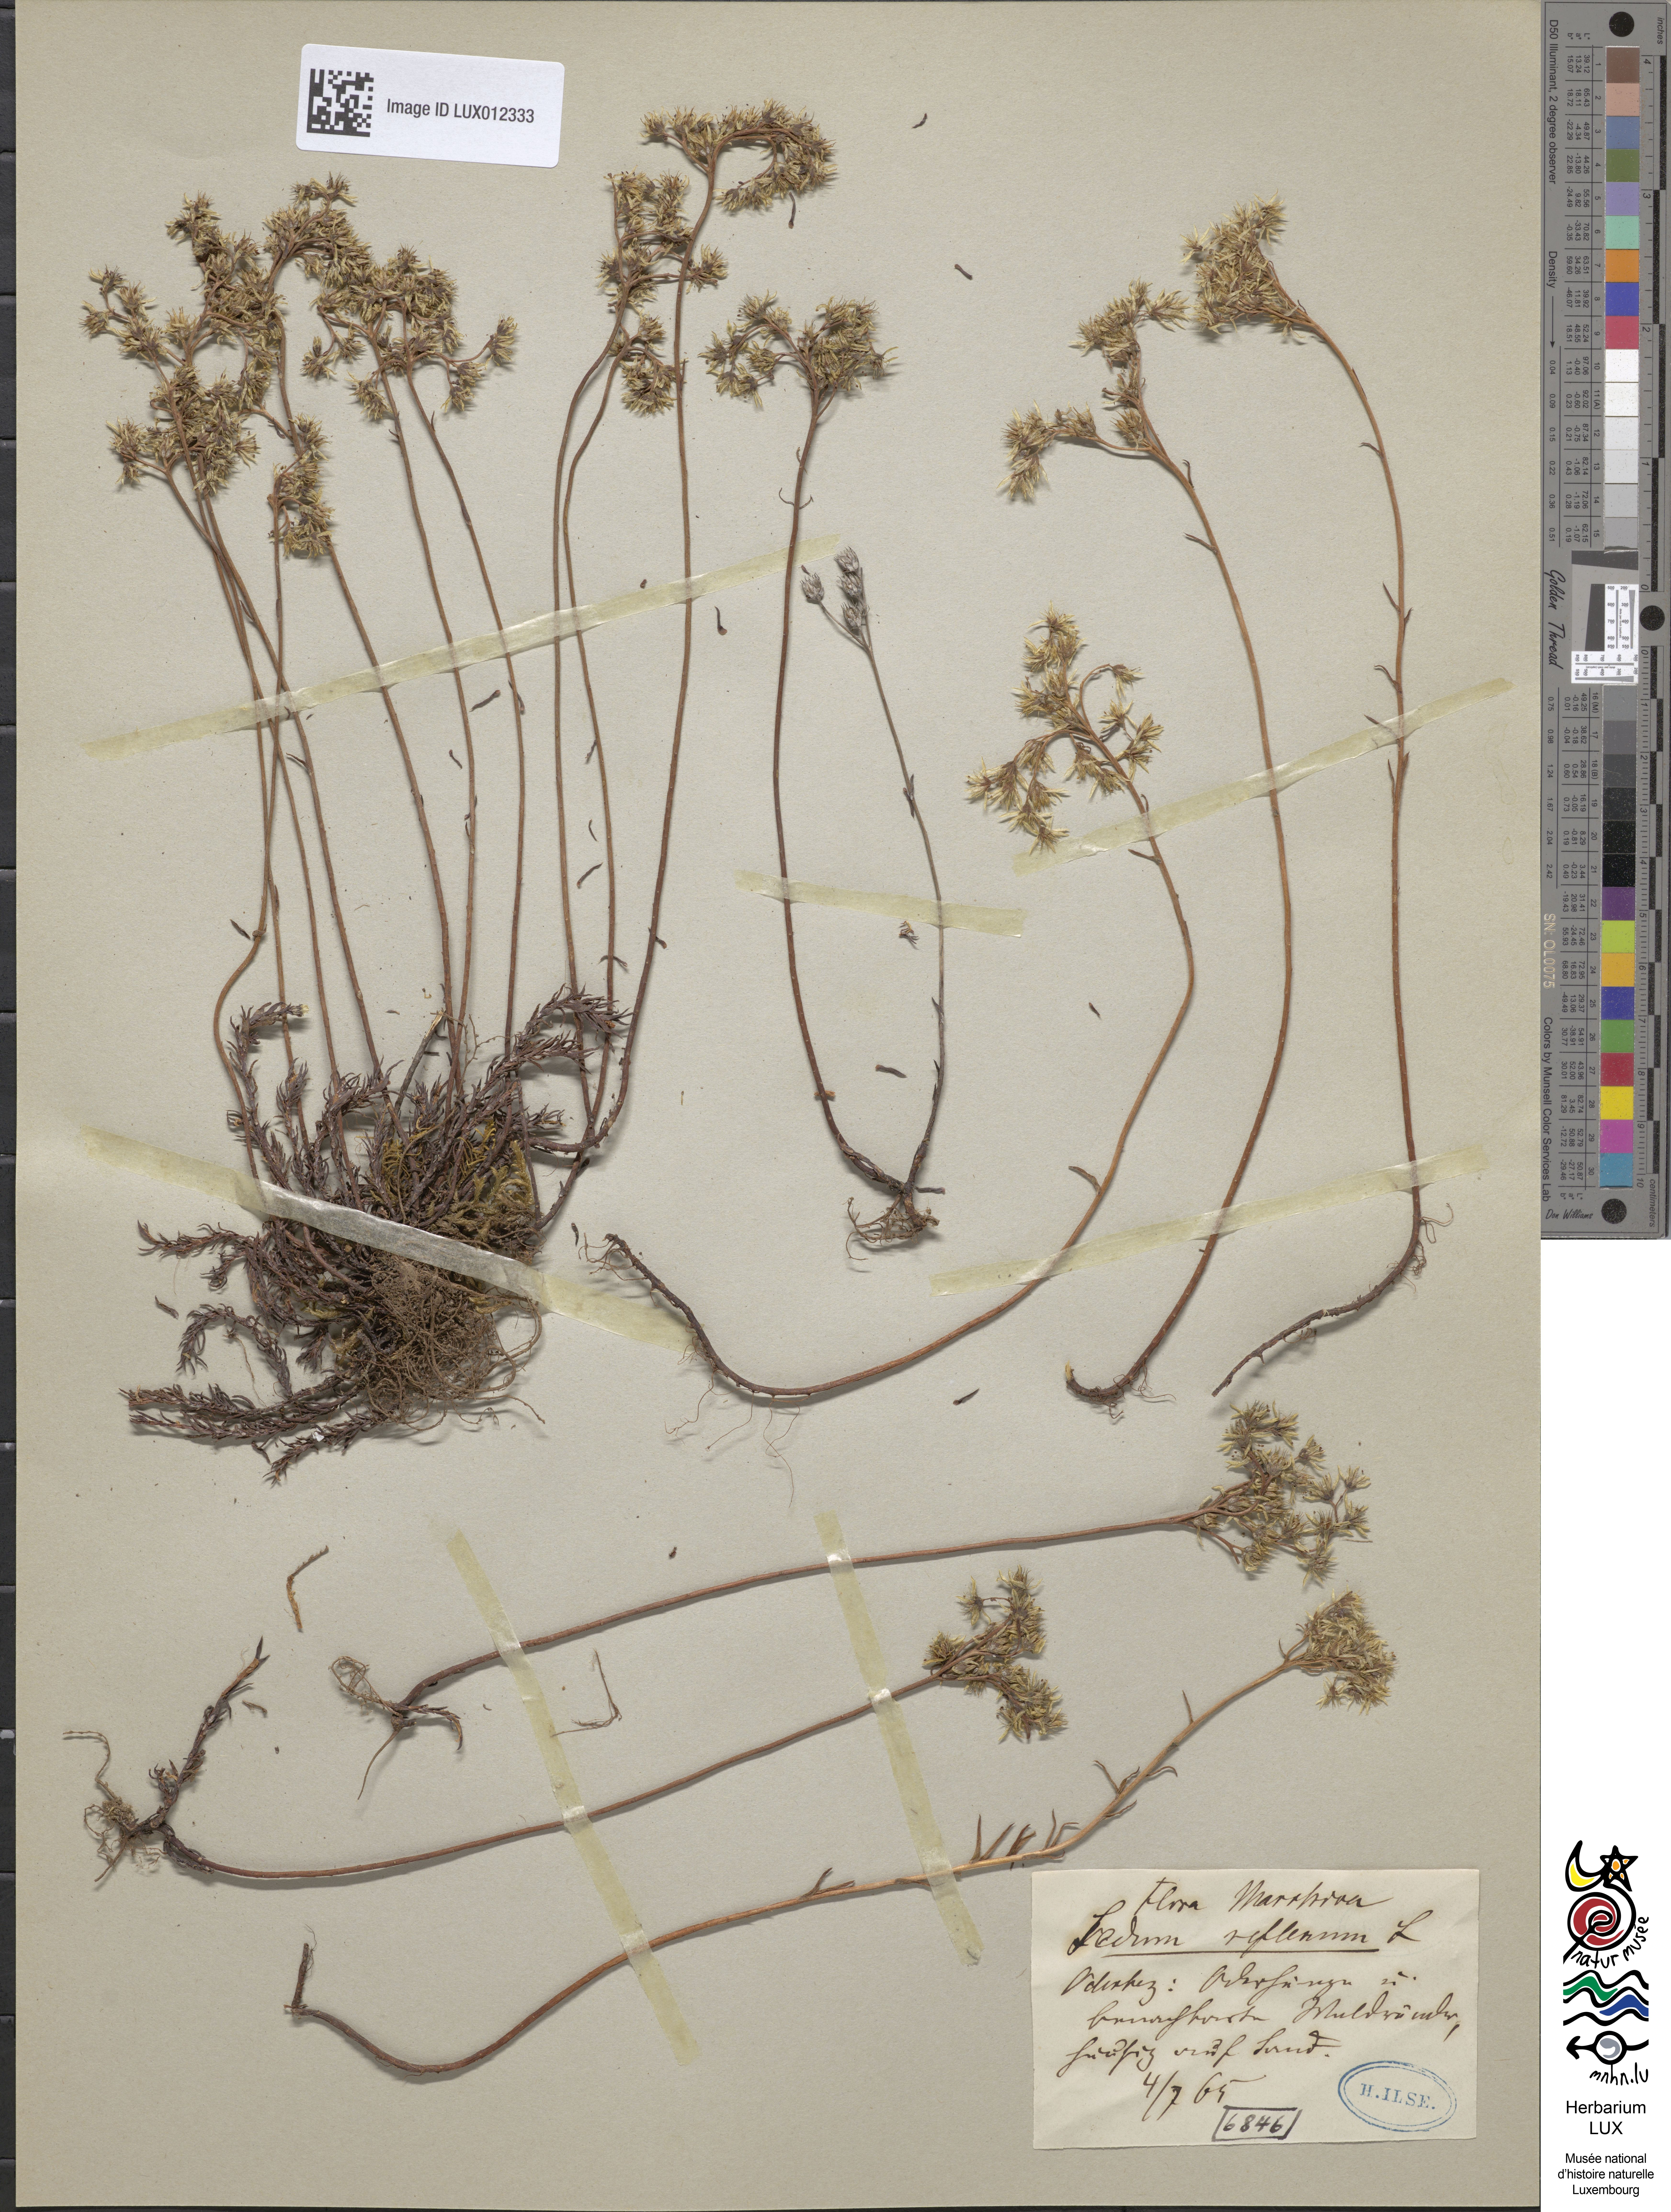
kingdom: Plantae
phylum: Tracheophyta
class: Magnoliopsida
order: Saxifragales
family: Crassulaceae
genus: Petrosedum
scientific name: Petrosedum rupestre
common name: Jenny's stonecrop
